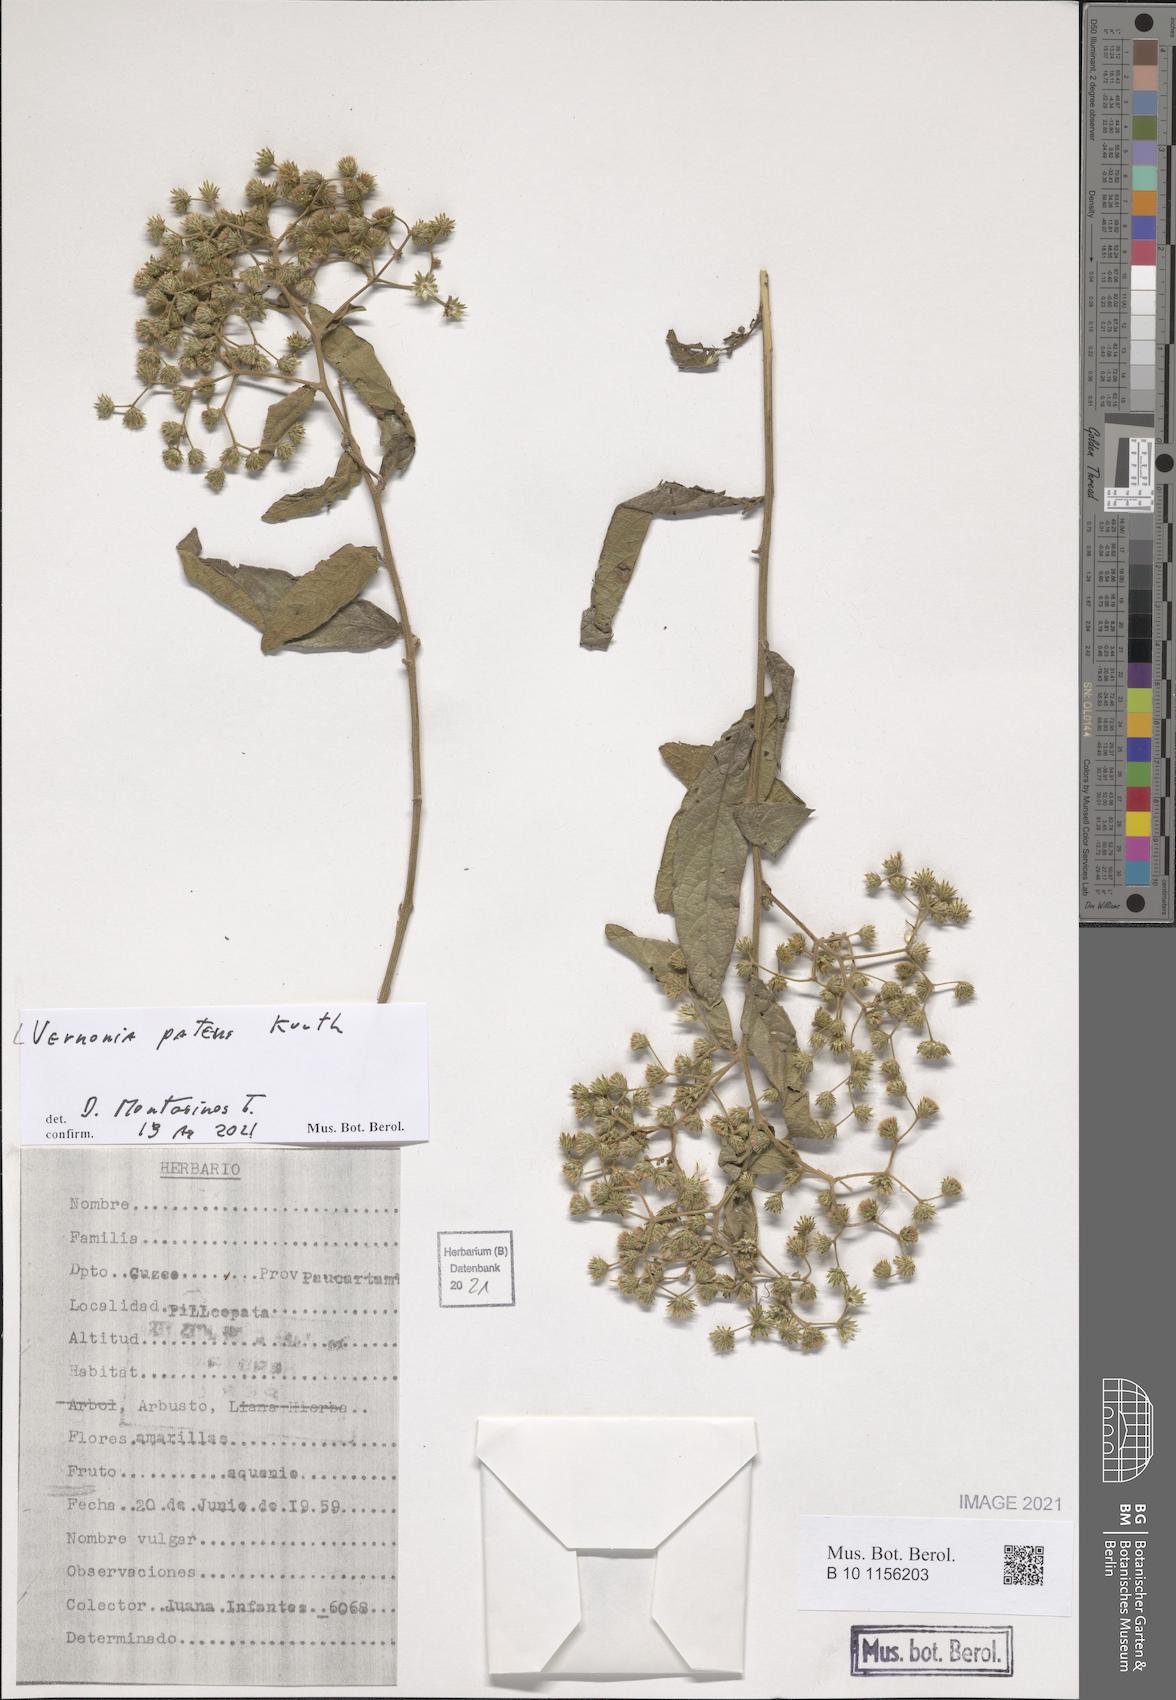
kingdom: Plantae
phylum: Tracheophyta
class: Magnoliopsida
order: Asterales
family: Asteraceae
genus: Vernonanthura
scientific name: Vernonanthura patens
